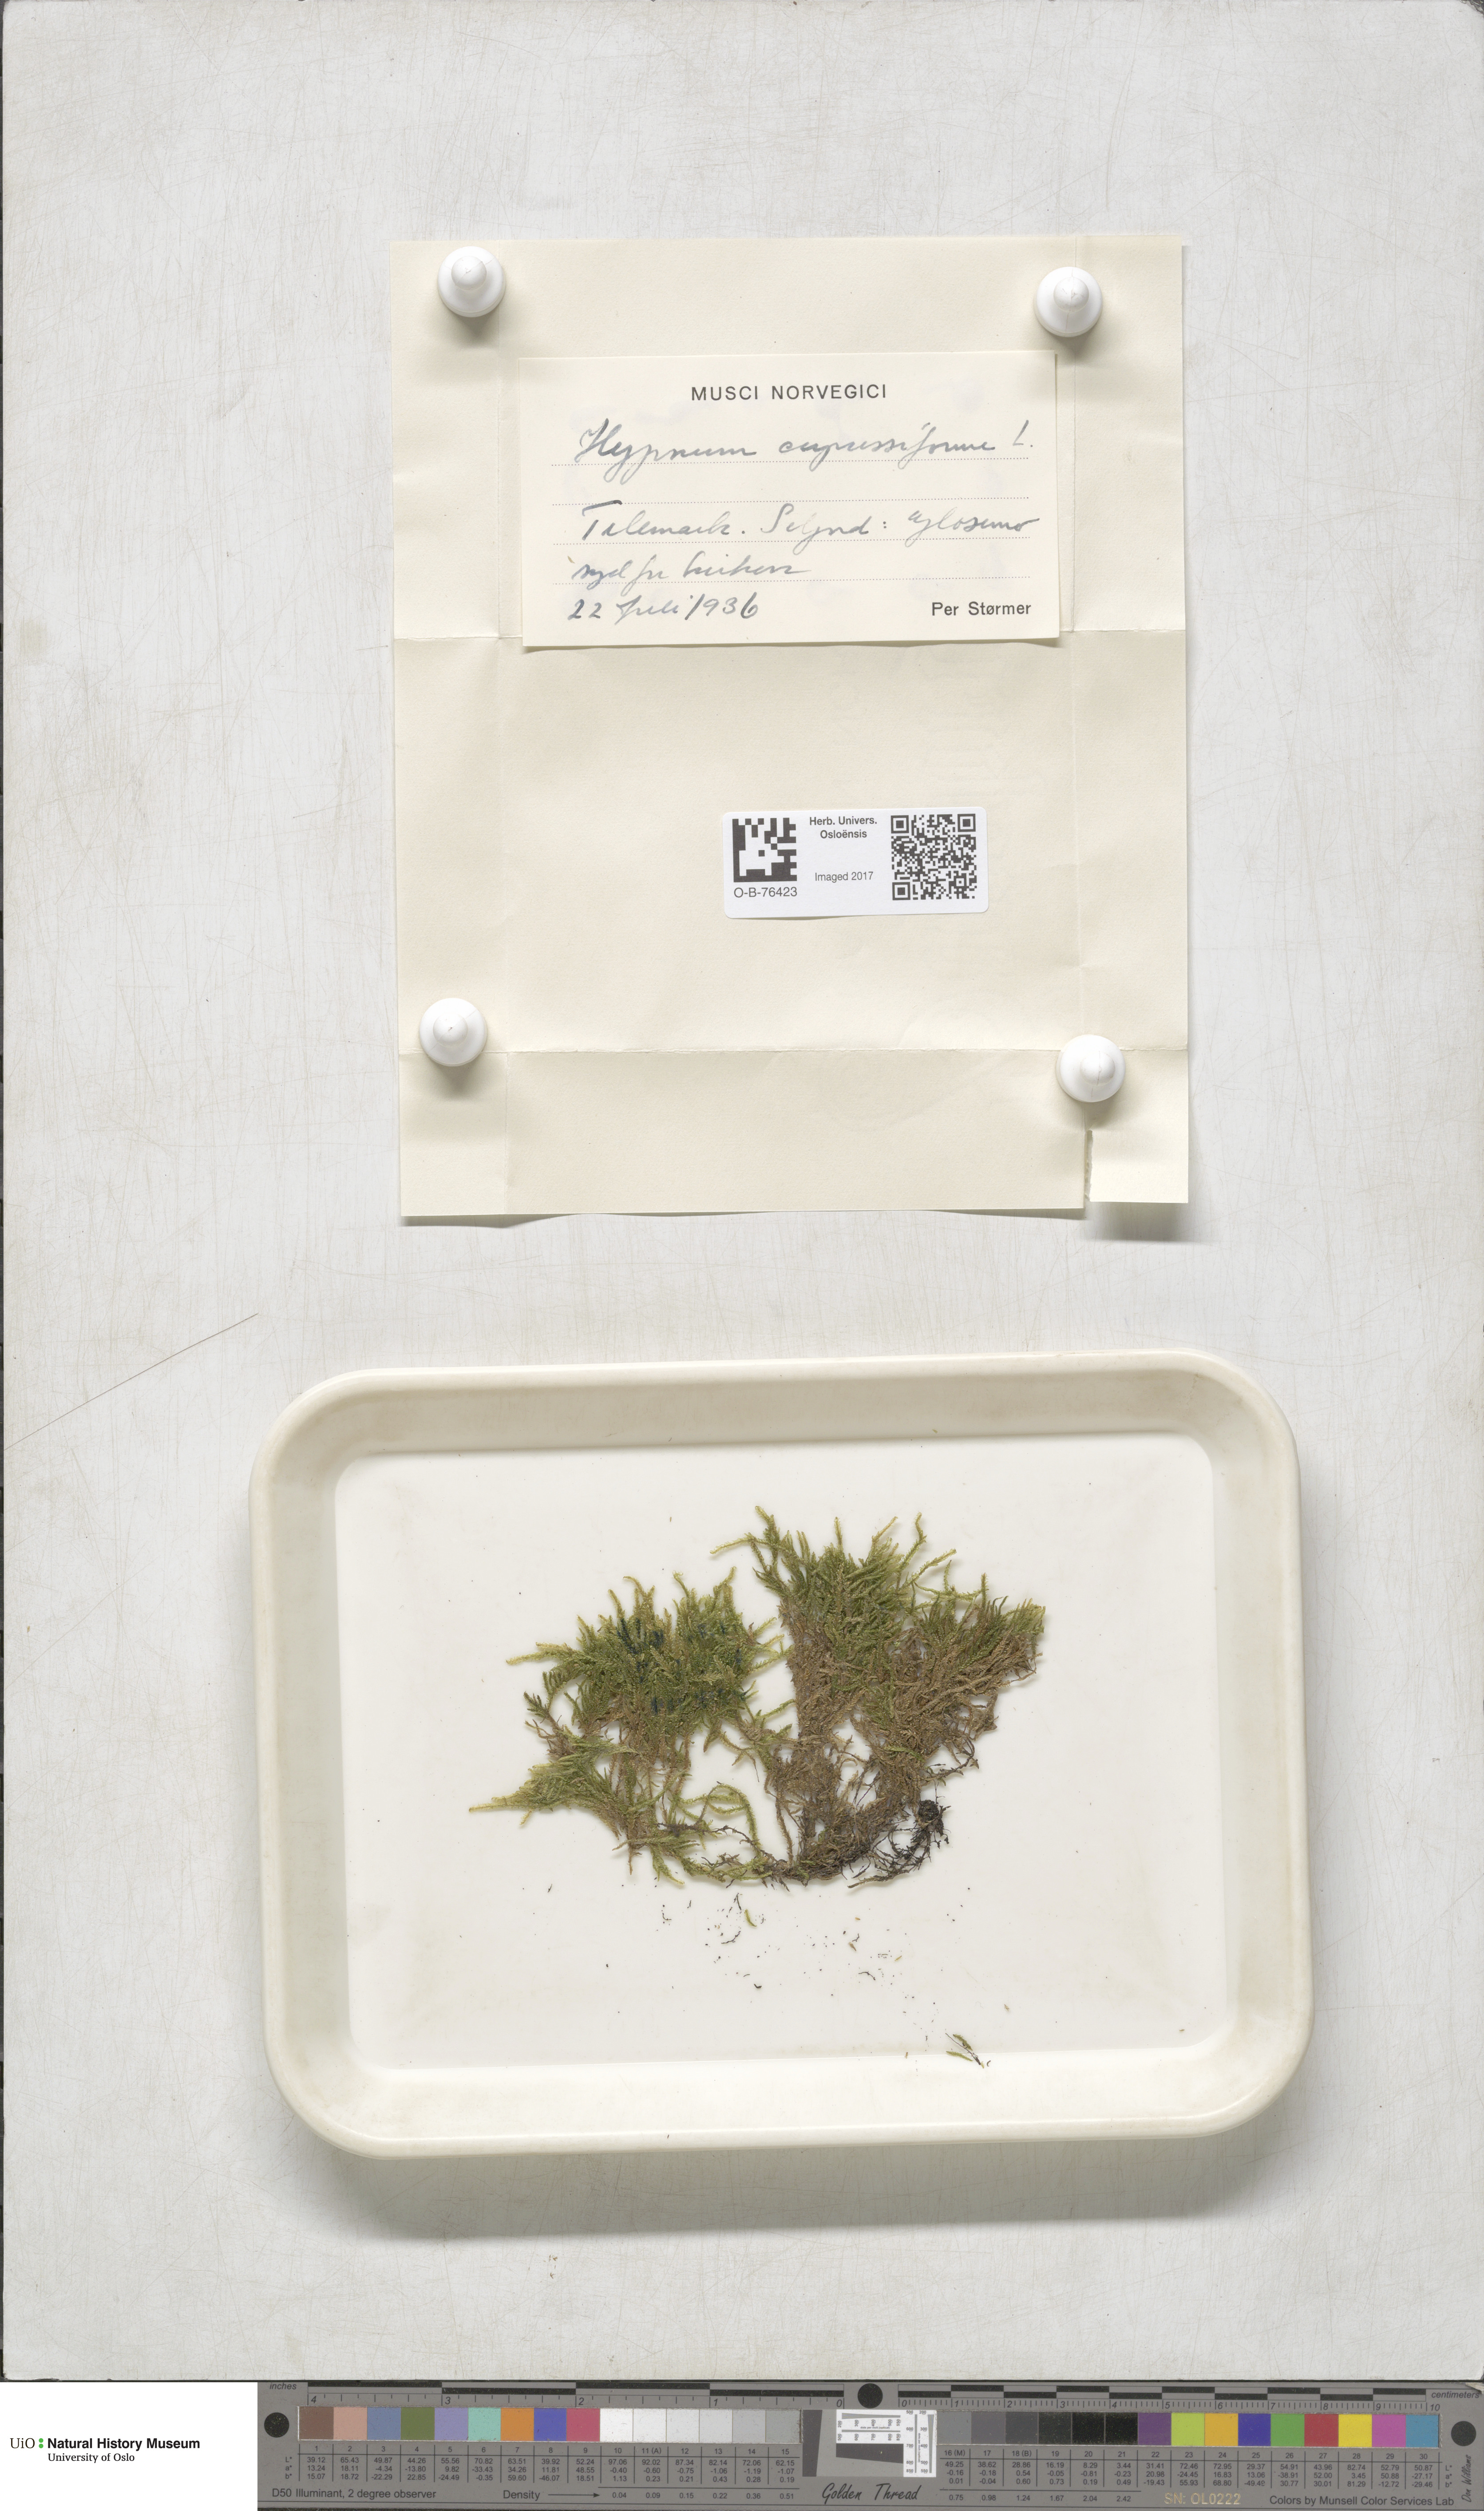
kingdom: Plantae
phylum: Bryophyta
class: Bryopsida
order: Hypnales
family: Hypnaceae
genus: Hypnum
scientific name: Hypnum cupressiforme
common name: Cypress-leaved plait-moss
